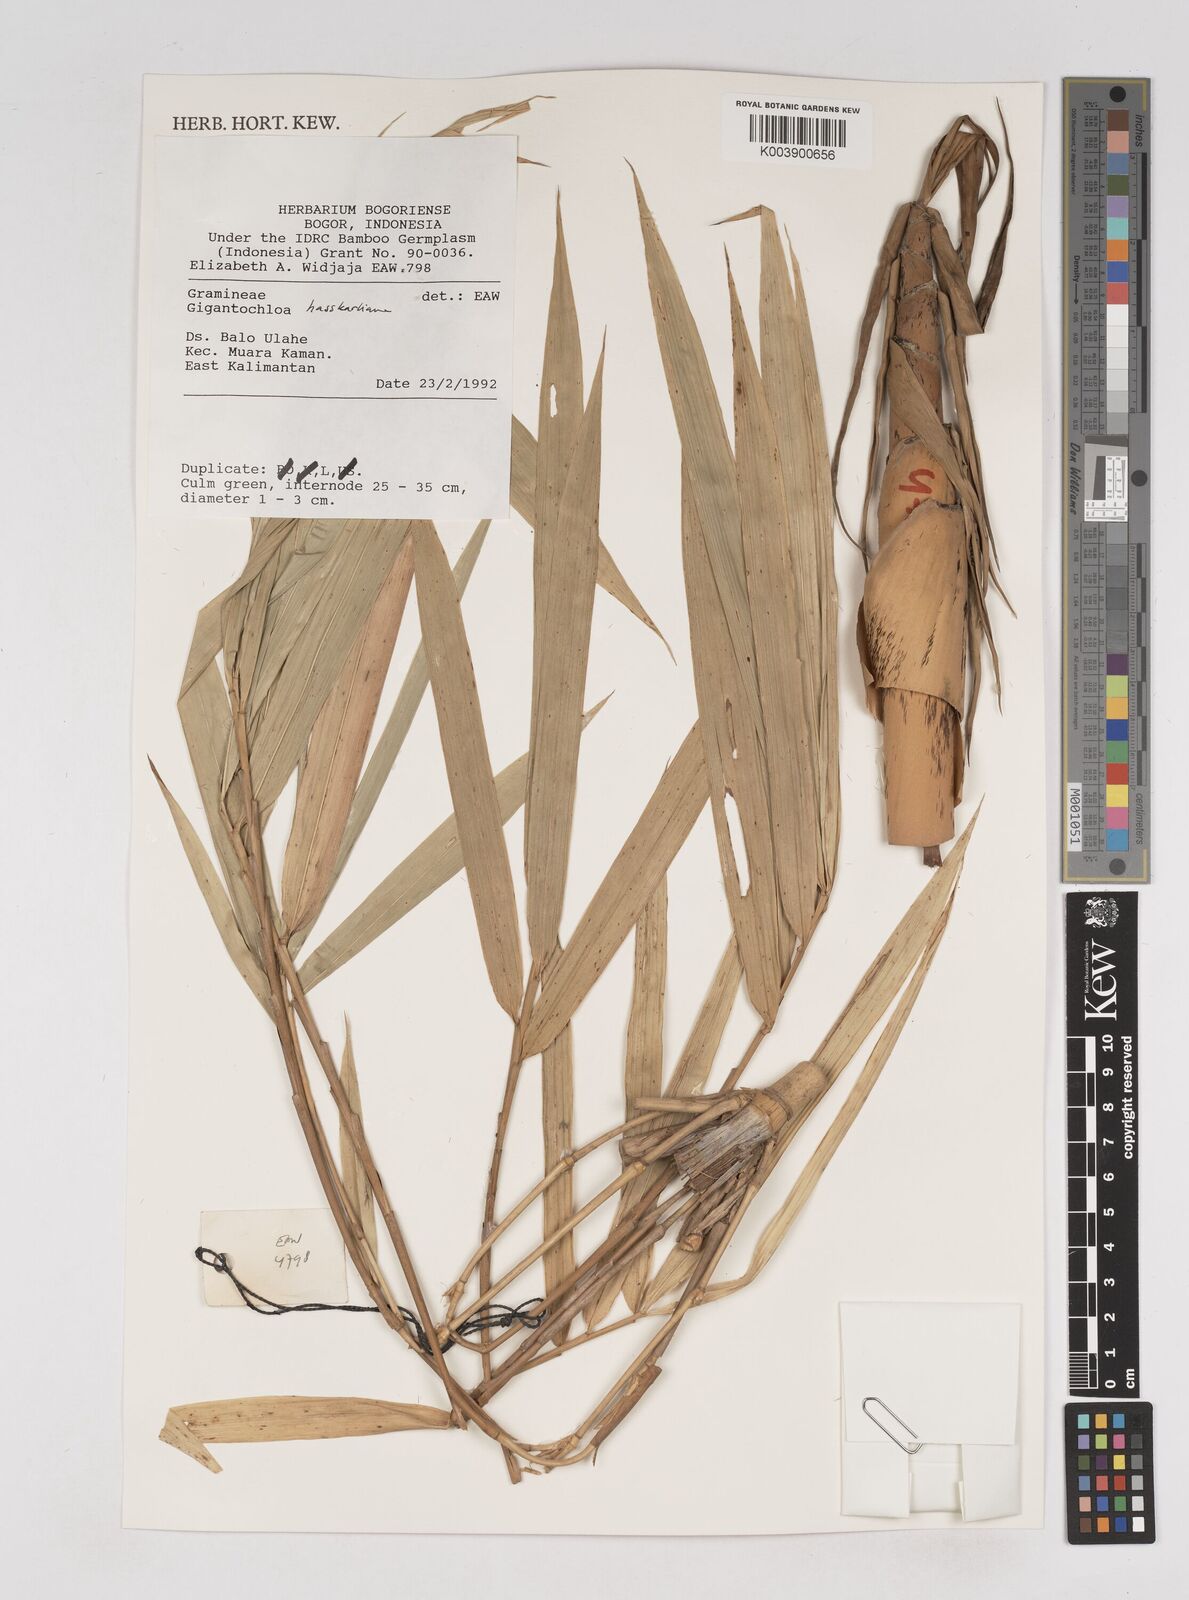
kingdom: Plantae
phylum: Tracheophyta
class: Liliopsida
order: Poales
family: Poaceae
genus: Gigantochloa
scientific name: Gigantochloa
